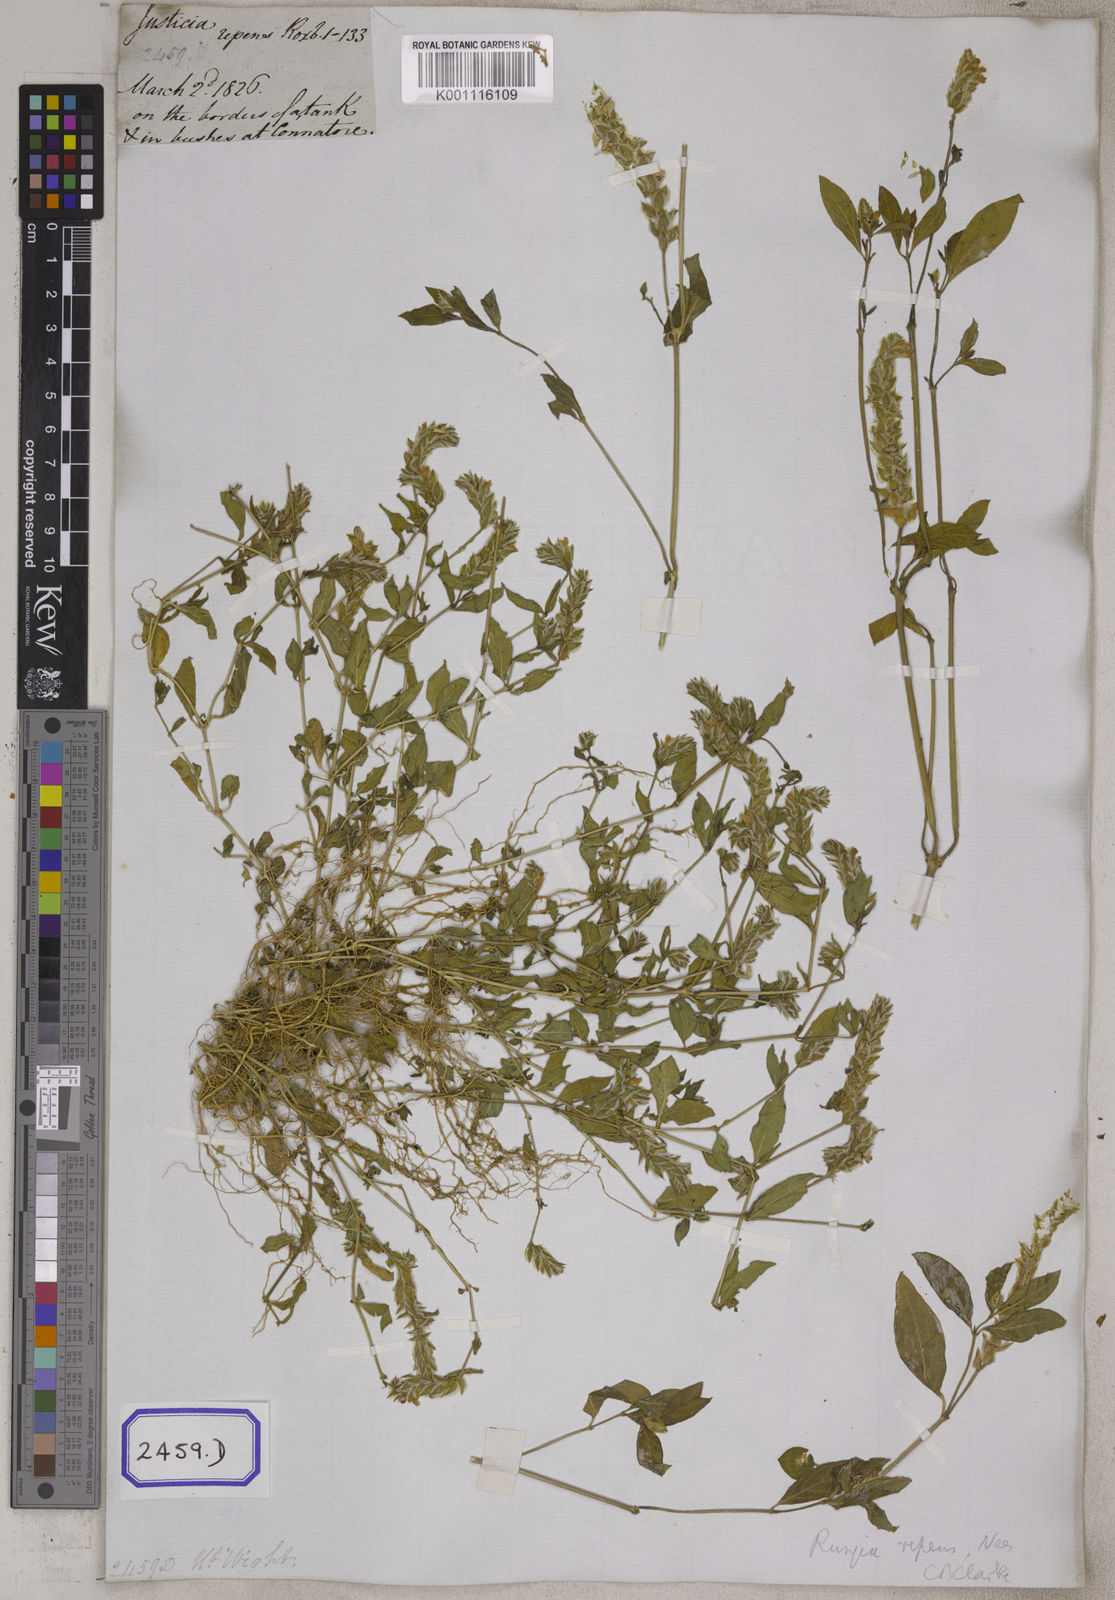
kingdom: Plantae
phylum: Tracheophyta
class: Magnoliopsida
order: Lamiales
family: Acanthaceae
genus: Justicia
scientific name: Justicia
